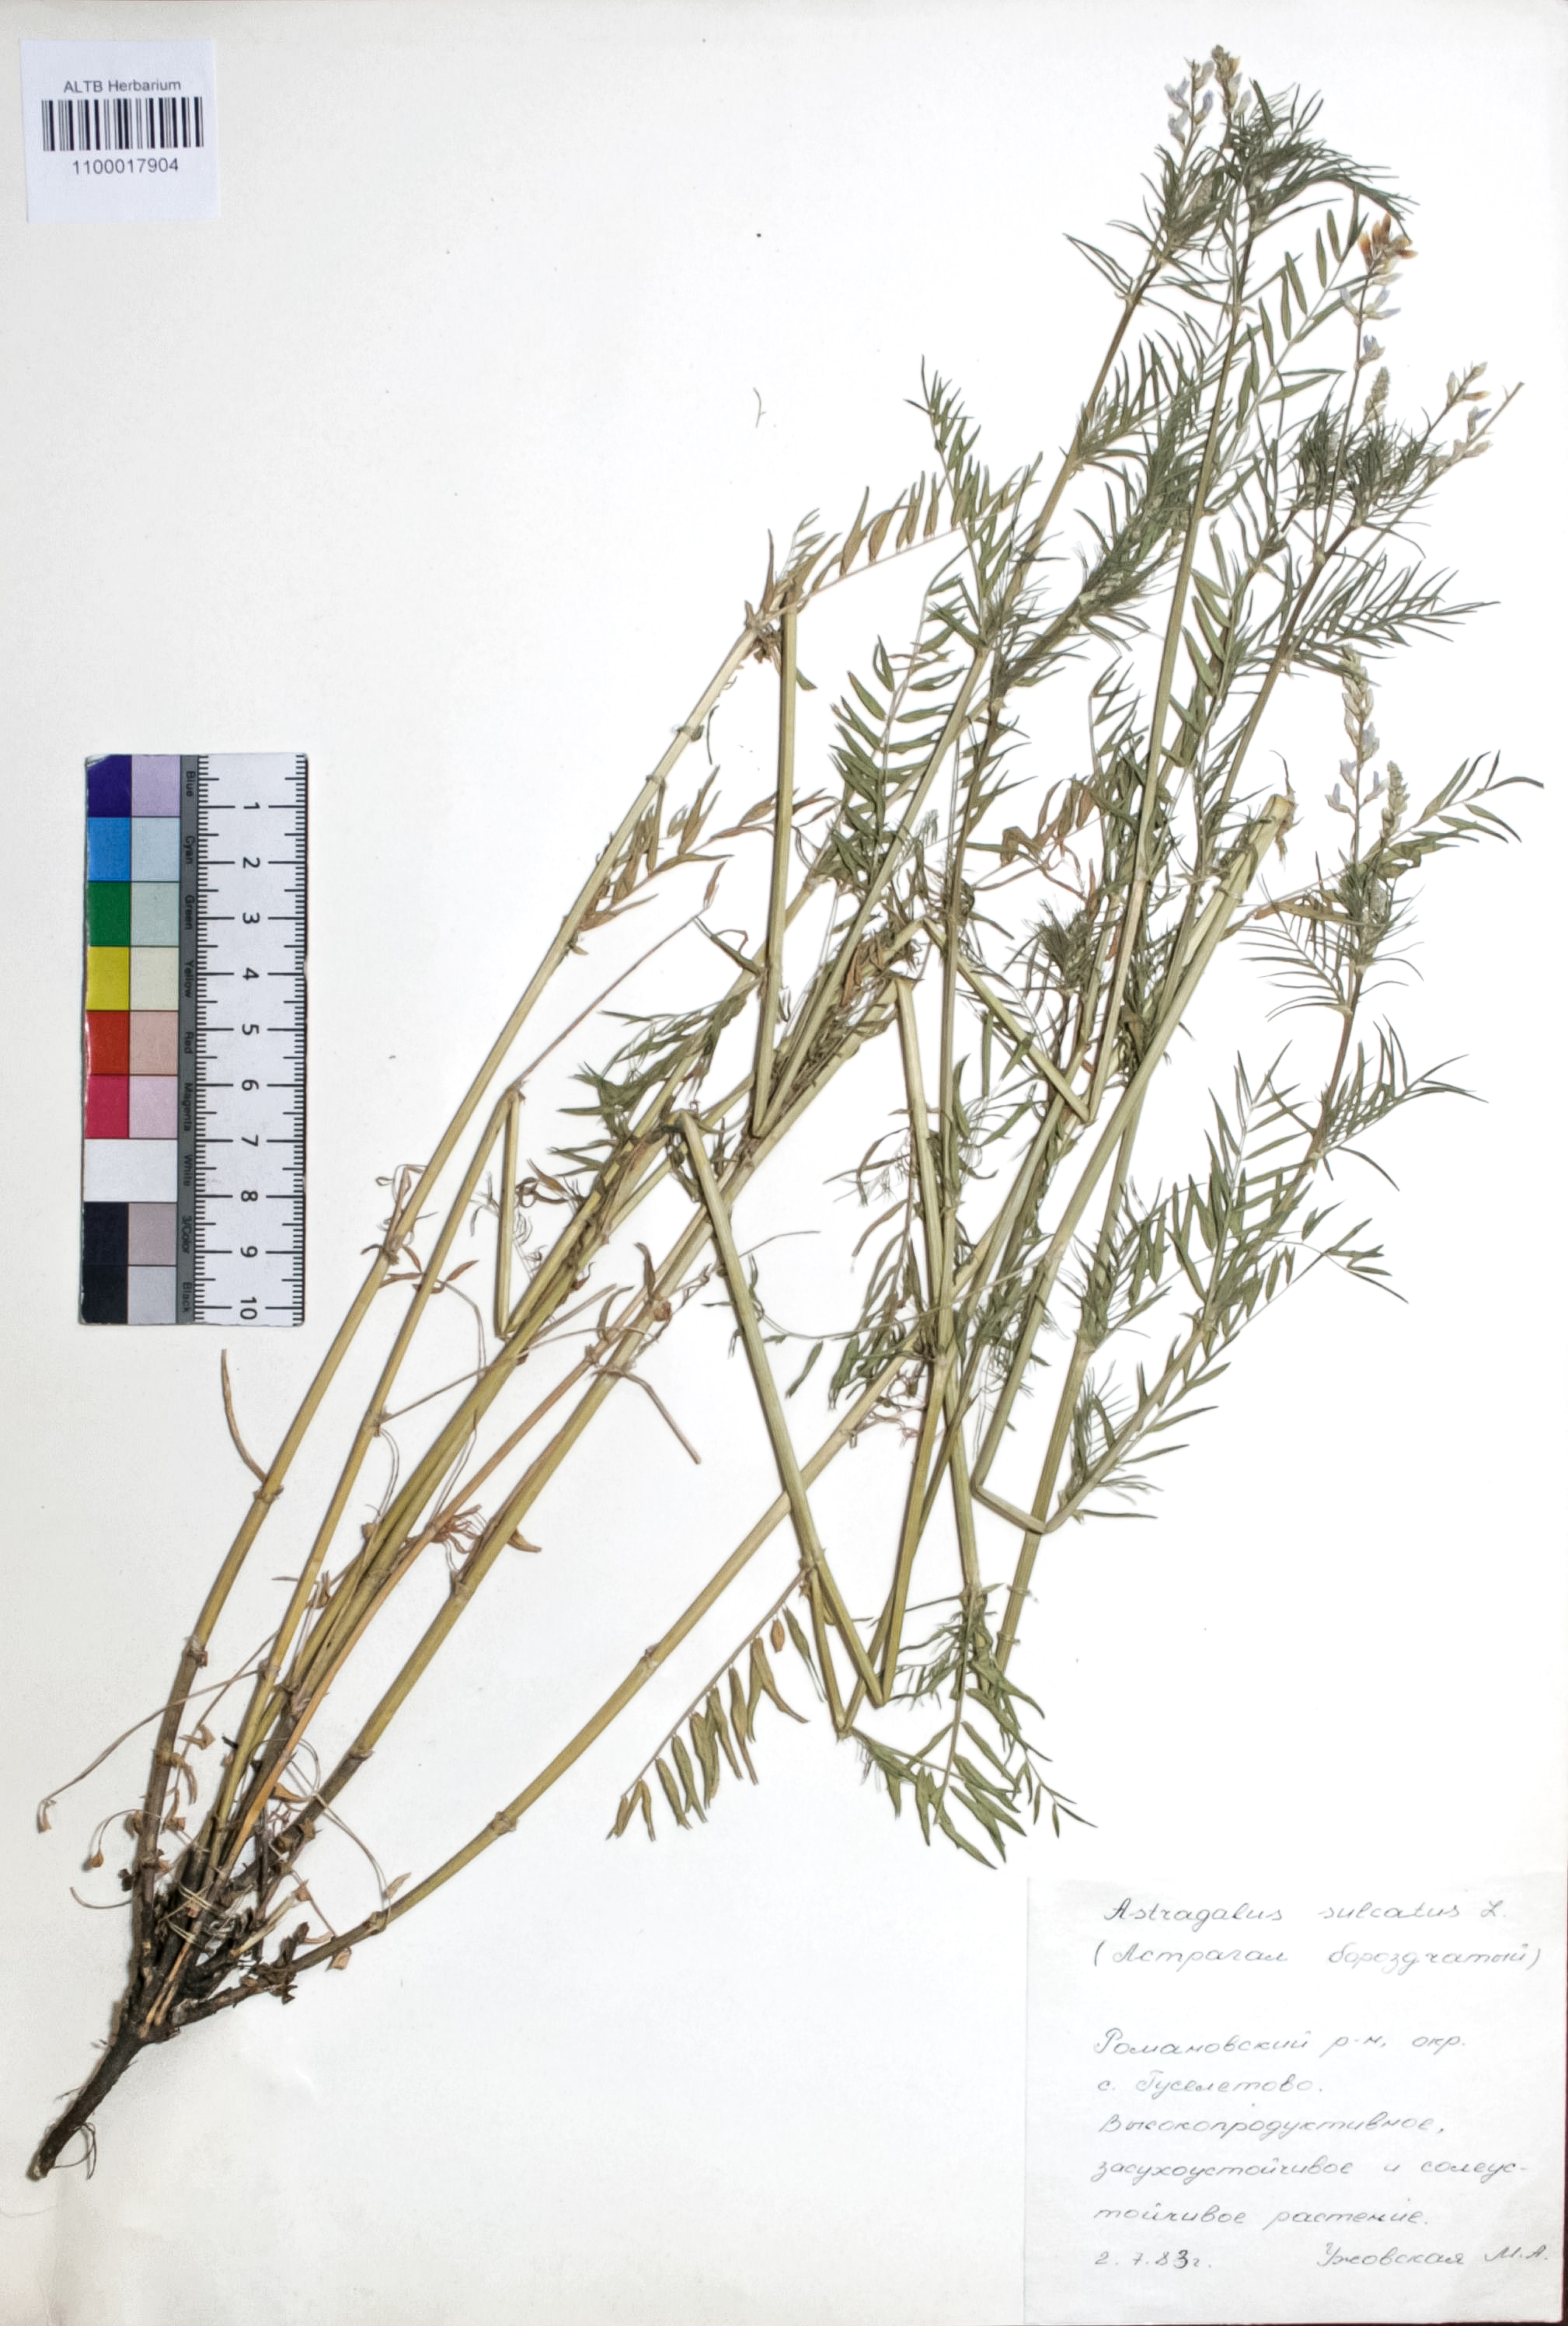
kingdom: Plantae
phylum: Tracheophyta
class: Magnoliopsida
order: Fabales
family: Fabaceae
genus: Astragalus
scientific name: Astragalus sulcatus
